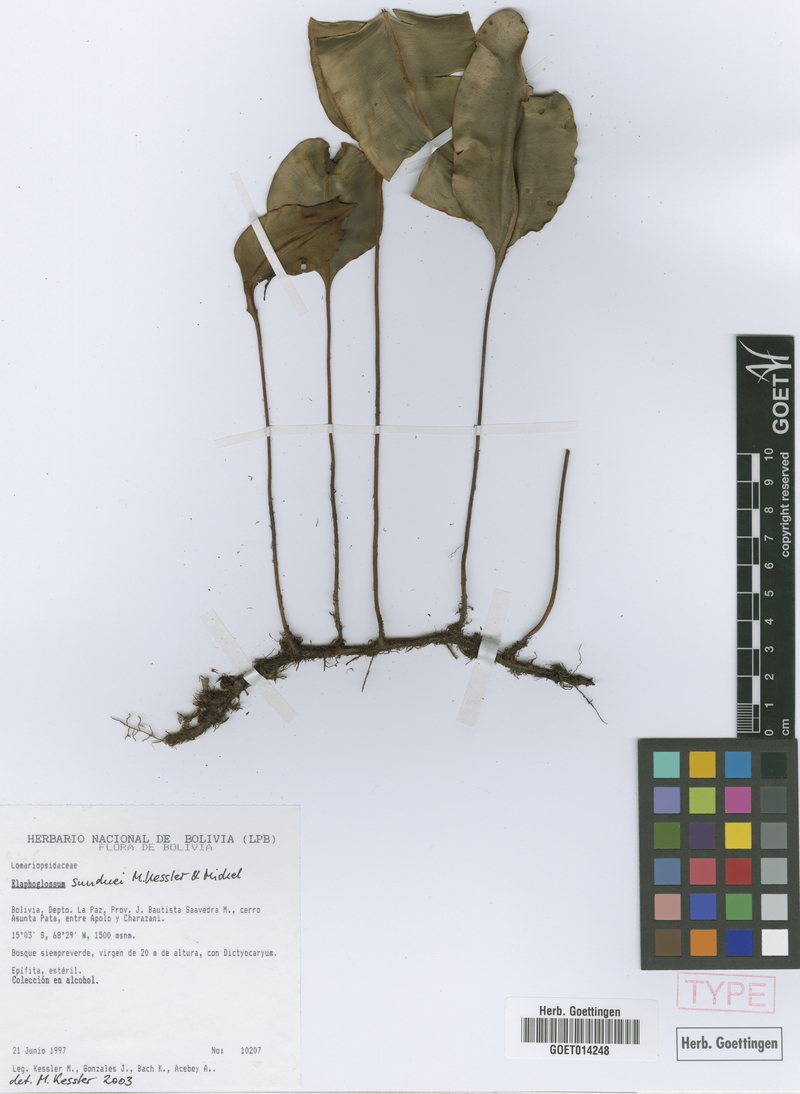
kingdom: Plantae
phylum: Tracheophyta
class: Polypodiopsida
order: Polypodiales
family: Dryopteridaceae
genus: Elaphoglossum
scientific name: Elaphoglossum sunduei
